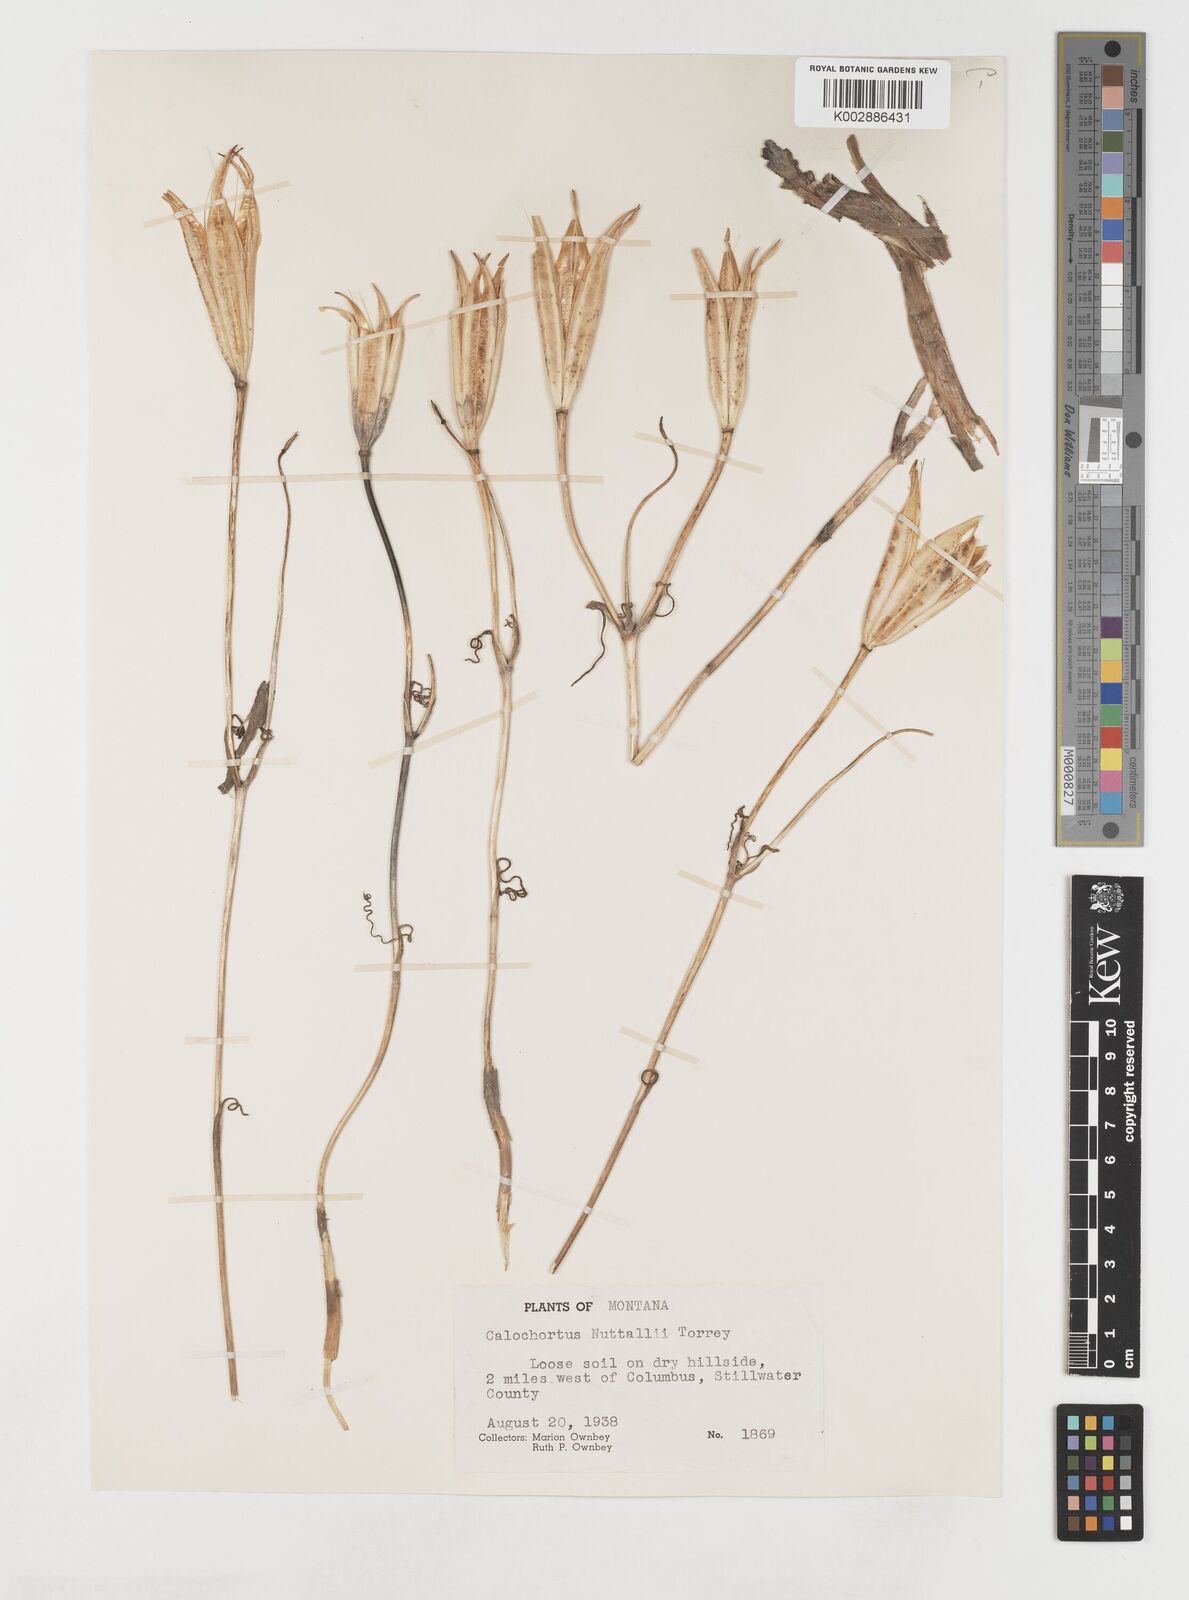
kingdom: Plantae
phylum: Tracheophyta
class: Liliopsida
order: Liliales
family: Liliaceae
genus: Calochortus
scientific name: Calochortus nuttallii
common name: Sego-lily
